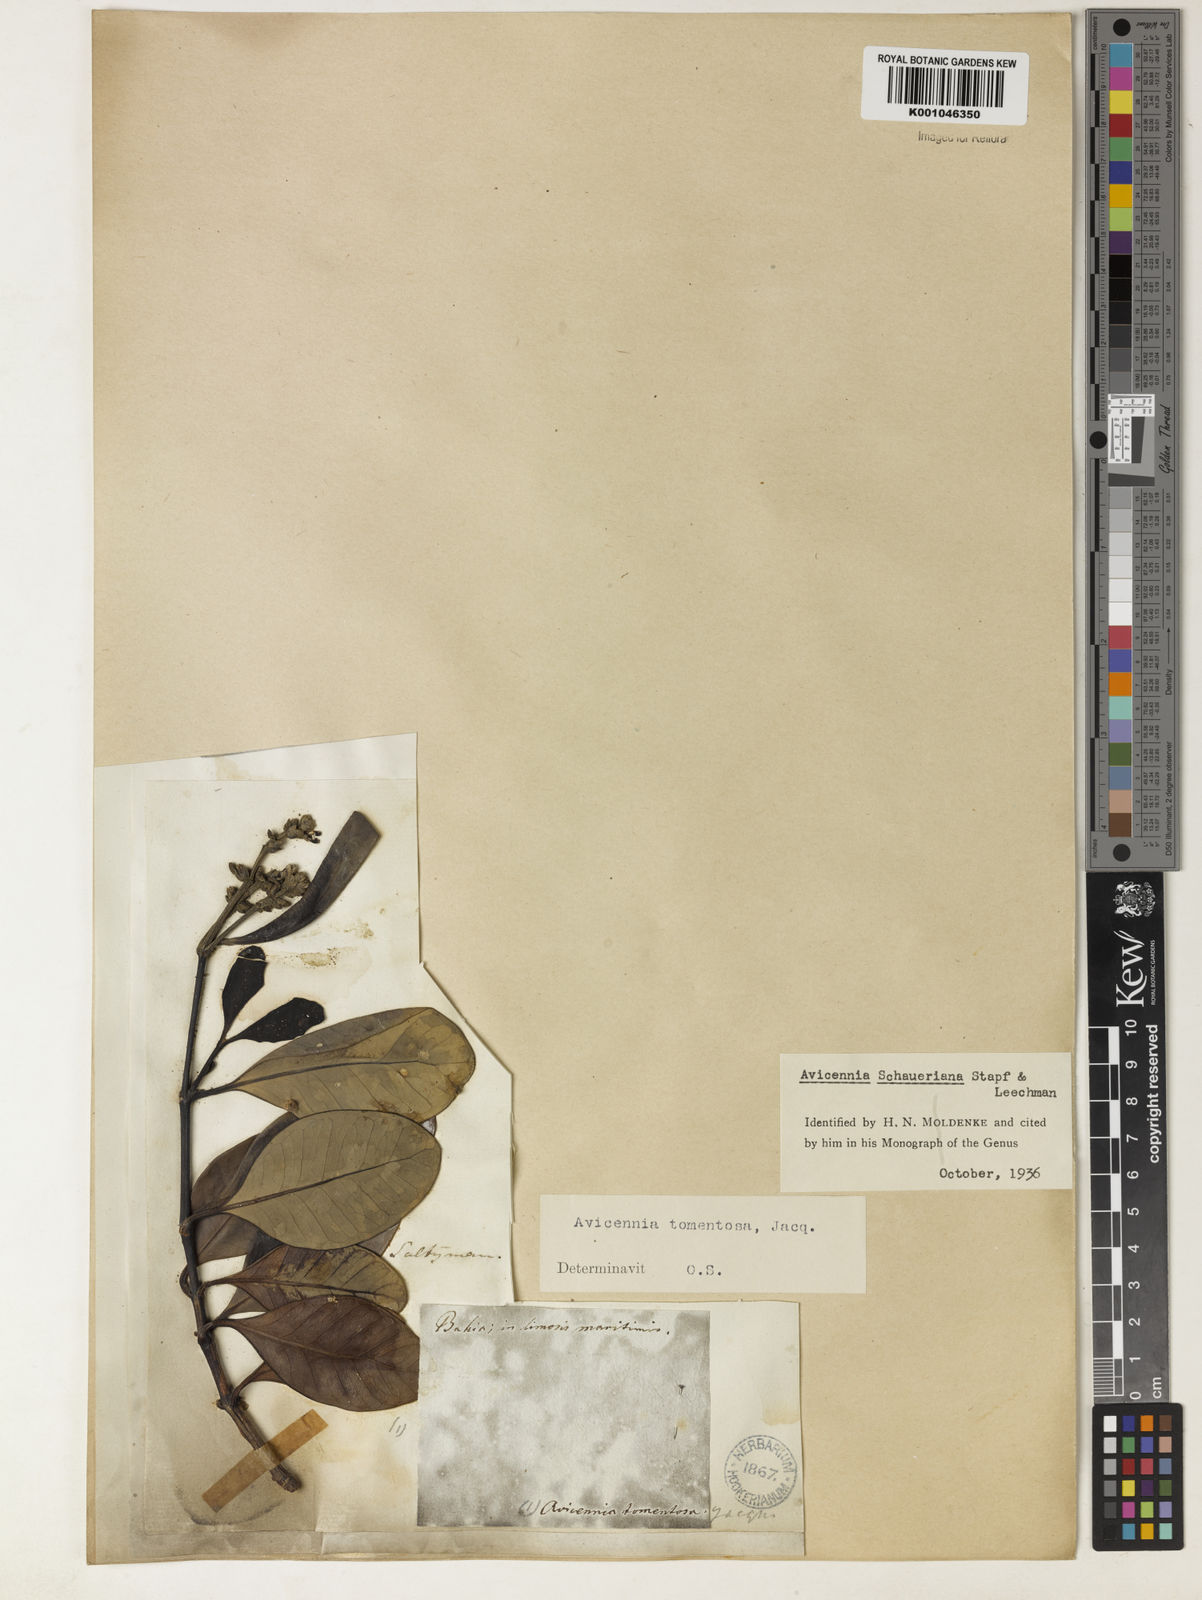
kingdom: Plantae
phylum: Tracheophyta
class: Magnoliopsida
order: Lamiales
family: Acanthaceae
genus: Avicennia
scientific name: Avicennia schaueriana
